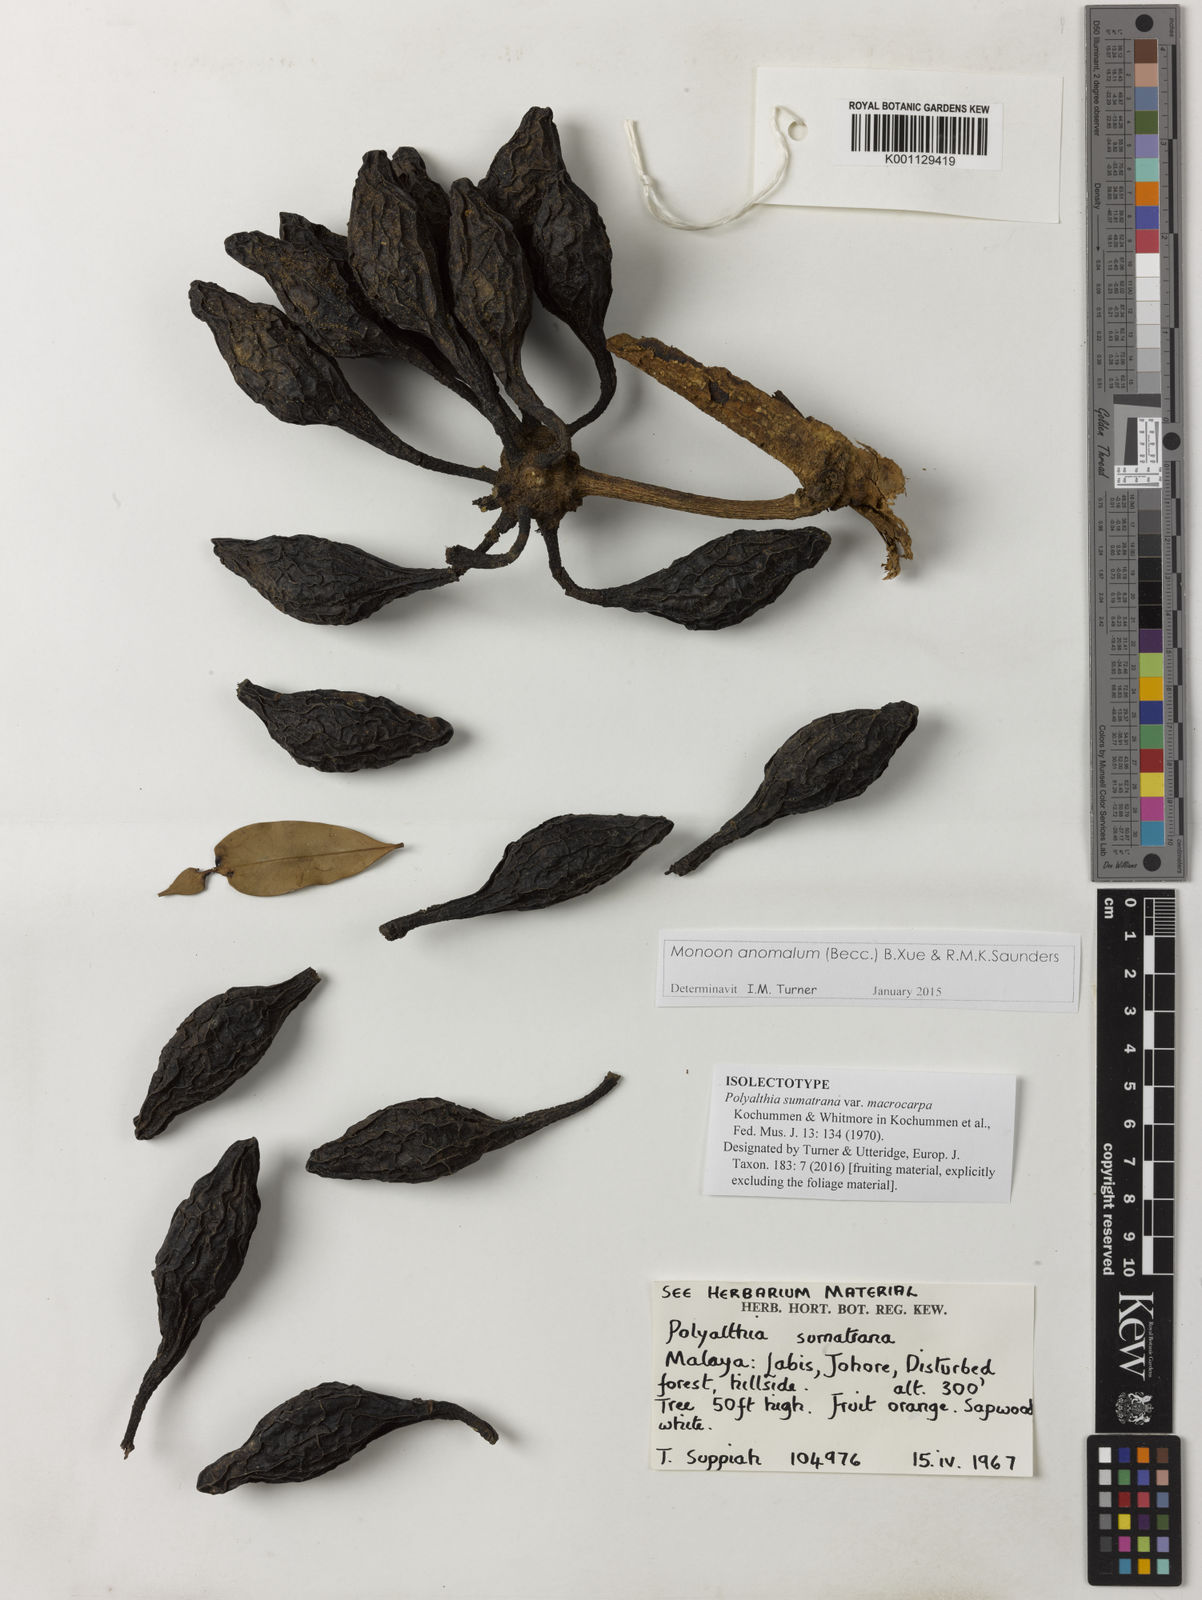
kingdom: Plantae
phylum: Tracheophyta
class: Magnoliopsida
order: Magnoliales
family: Annonaceae
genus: Maasia
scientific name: Maasia
